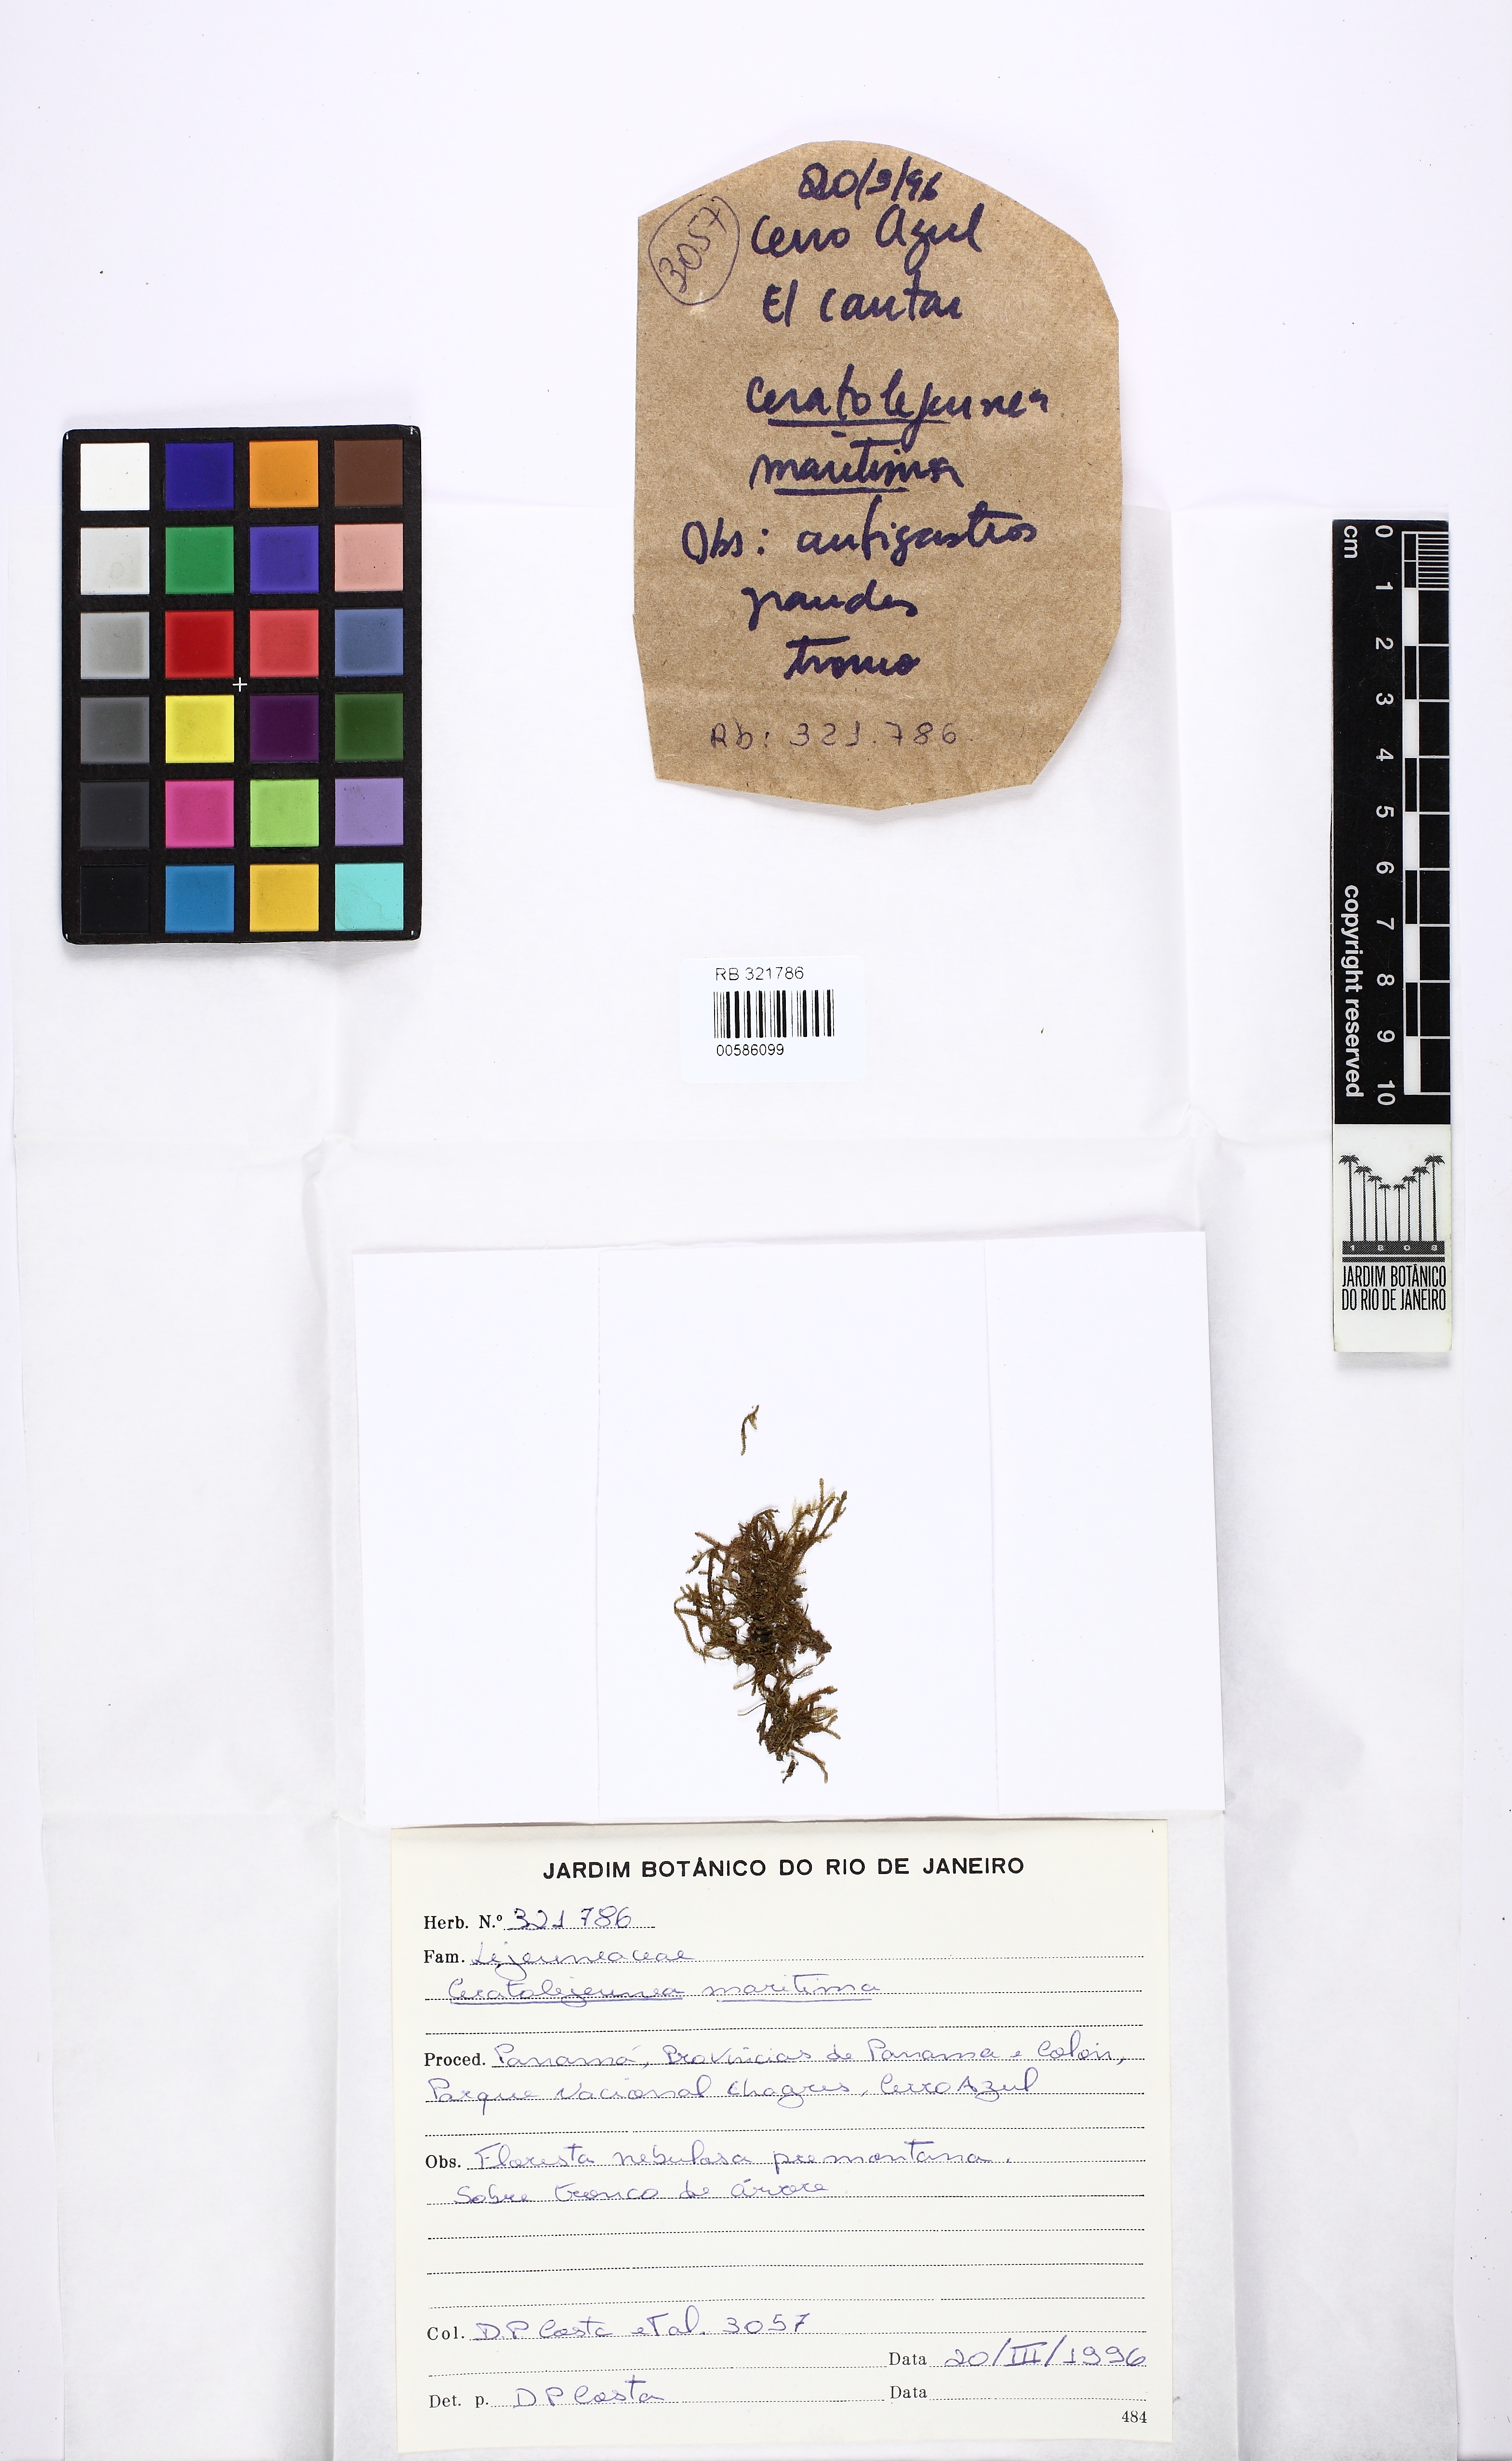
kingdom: Plantae
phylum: Marchantiophyta
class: Jungermanniopsida
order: Porellales
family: Lejeuneaceae
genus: Ceratolejeunea
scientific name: Ceratolejeunea cornuta
